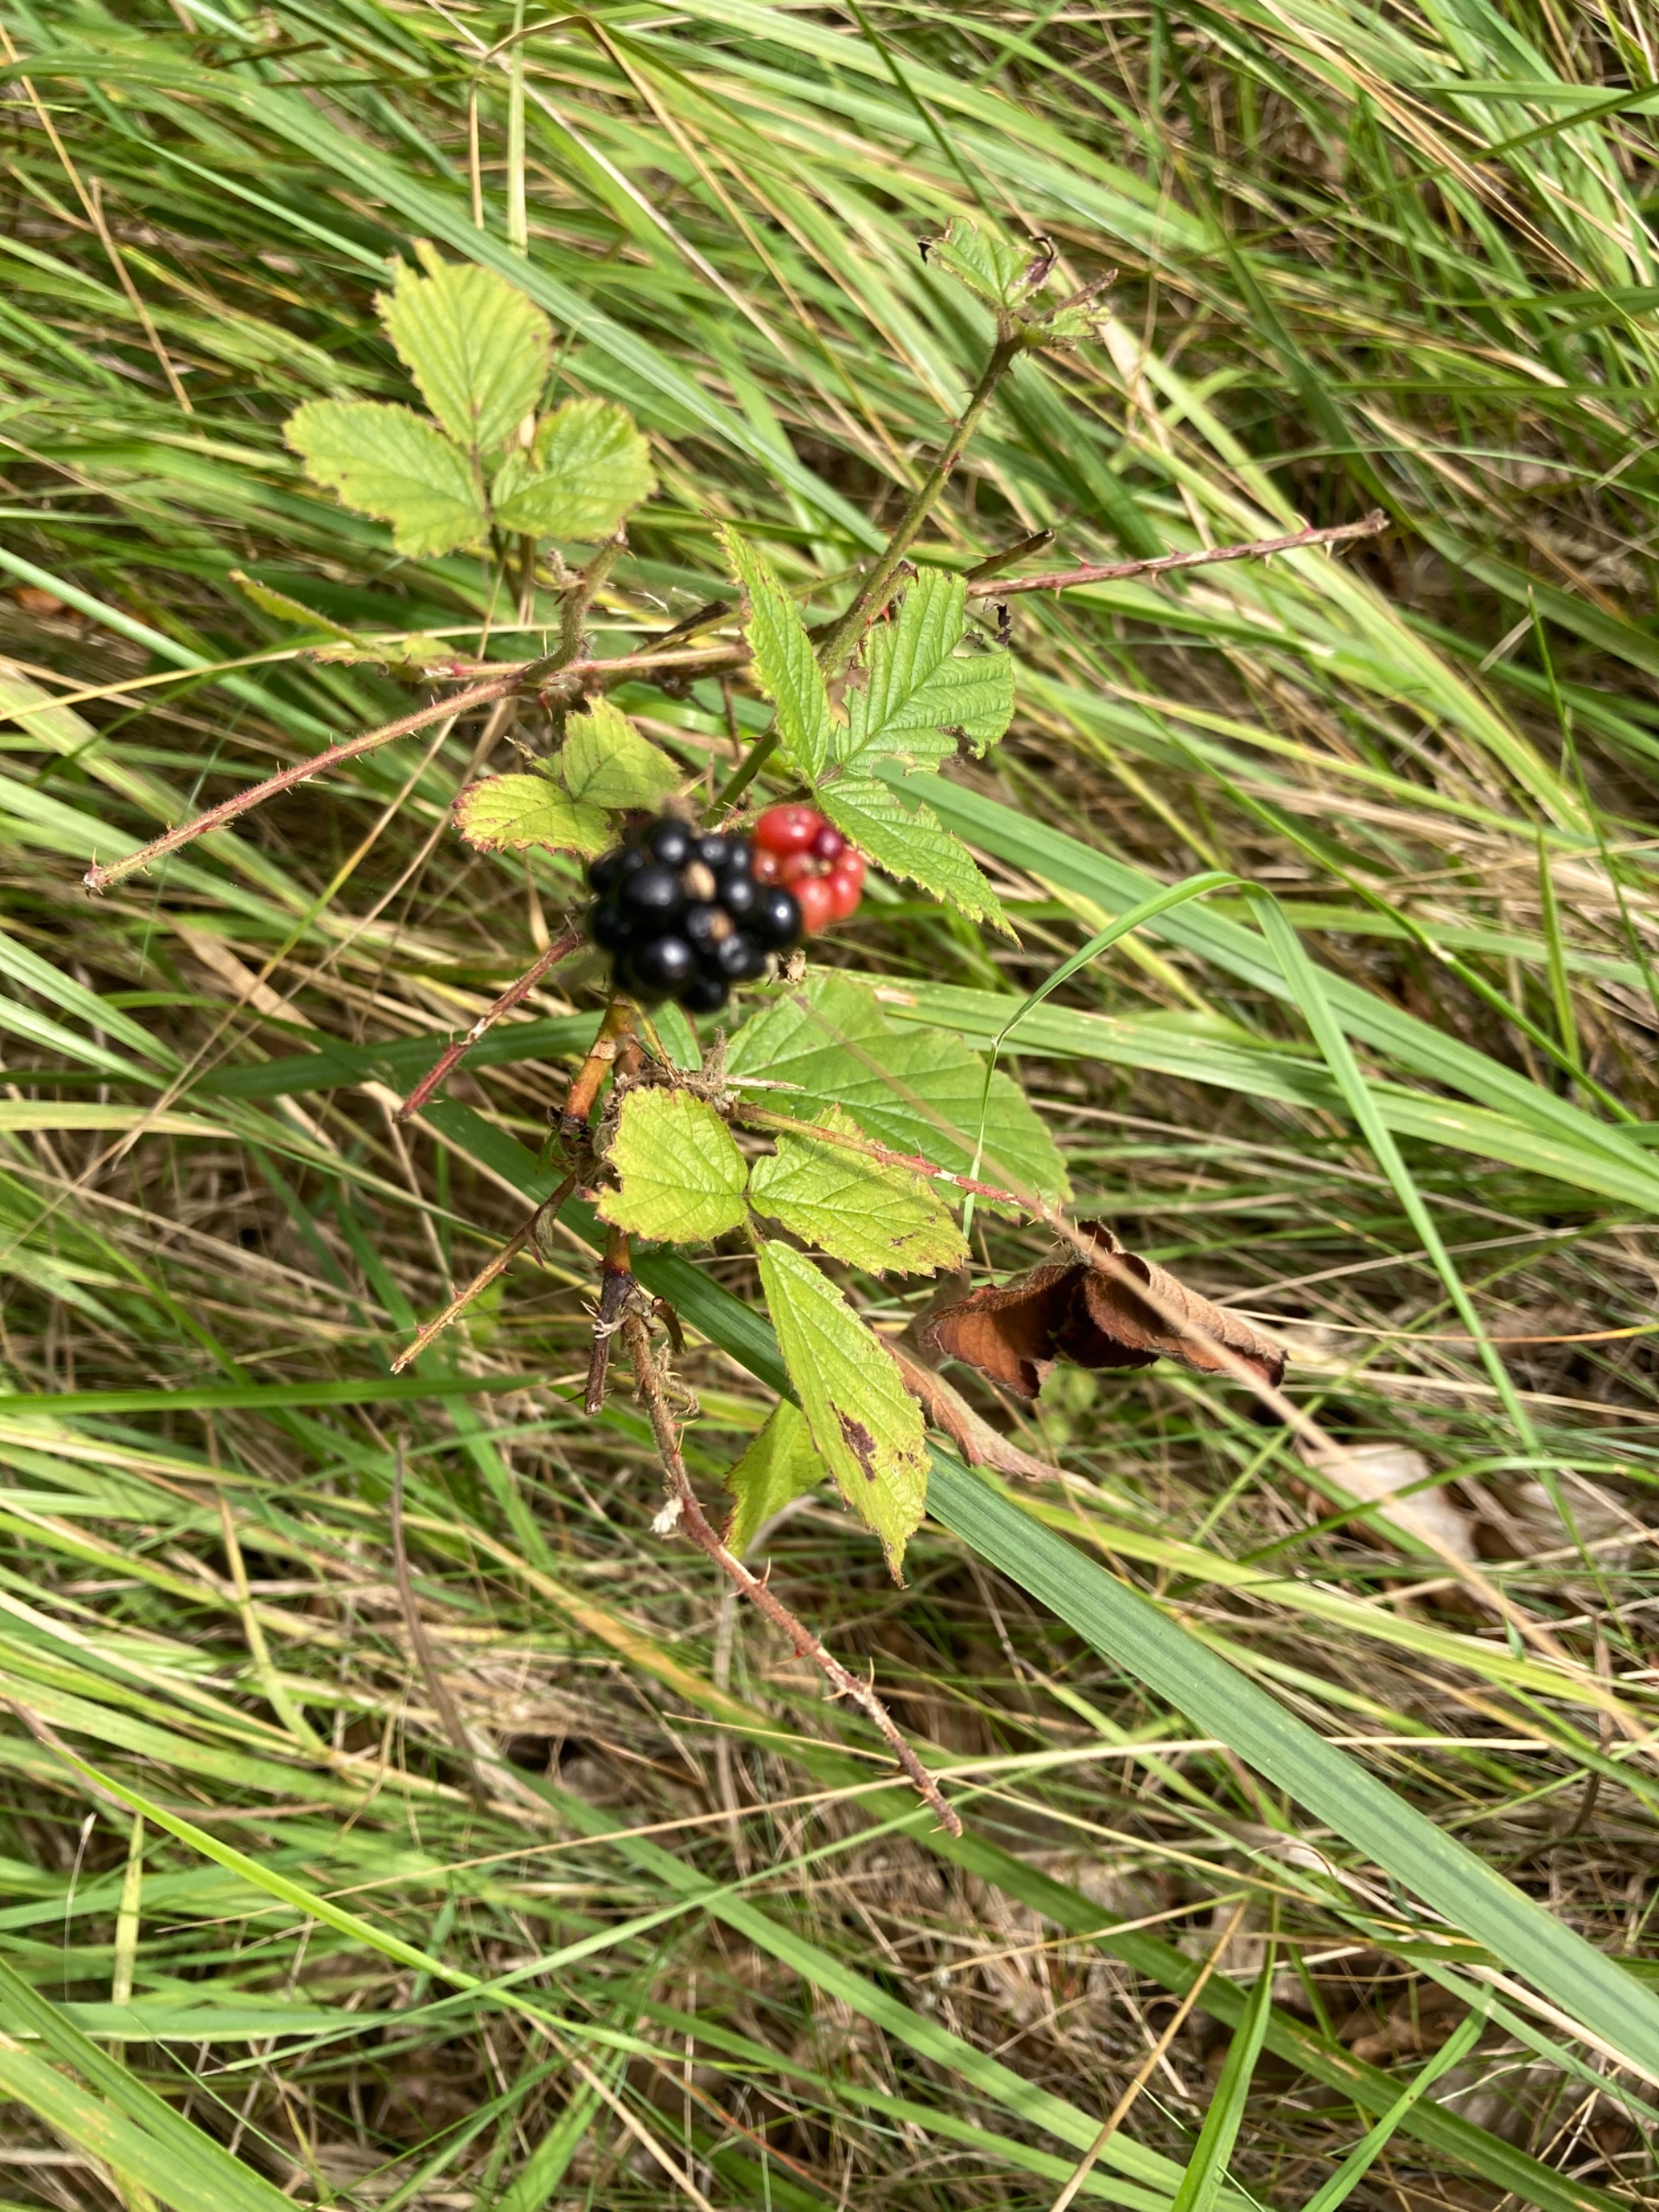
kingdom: Plantae
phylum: Tracheophyta
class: Magnoliopsida
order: Rosales
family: Rosaceae
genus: Rubus
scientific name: Rubus
